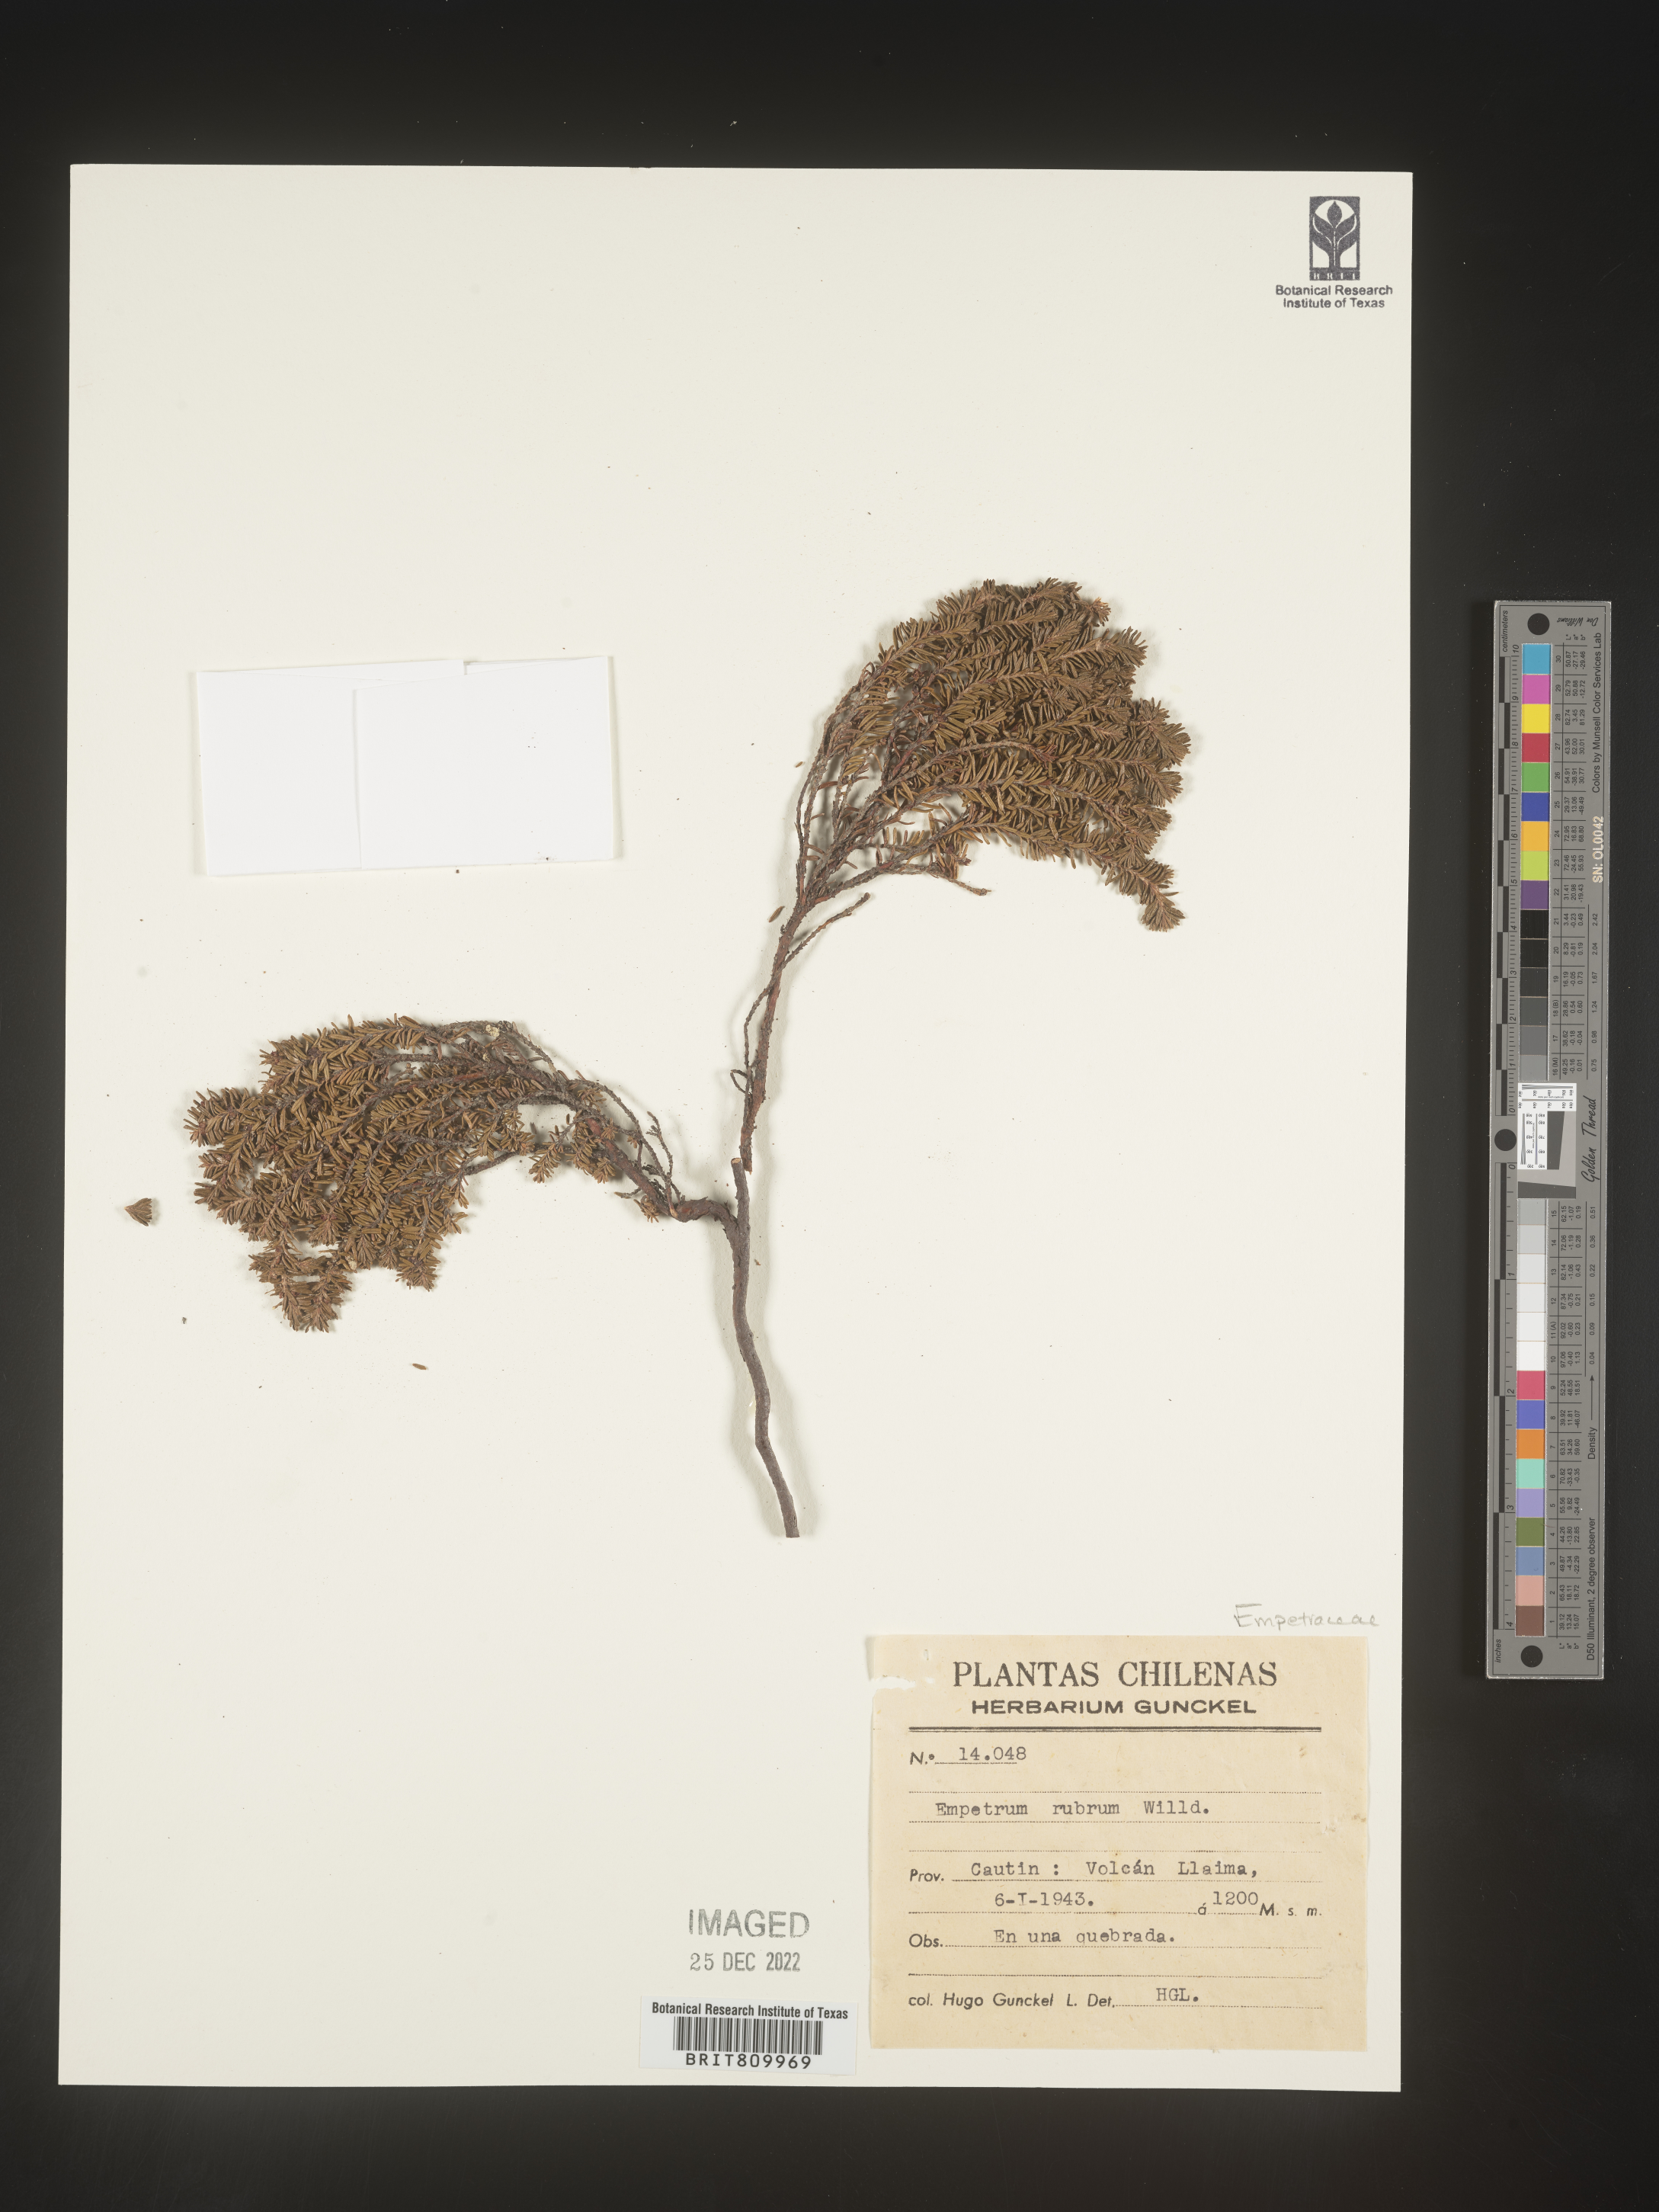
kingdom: Plantae
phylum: Tracheophyta
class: Magnoliopsida
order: Ericales
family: Ericaceae
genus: Empetrum
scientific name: Empetrum
